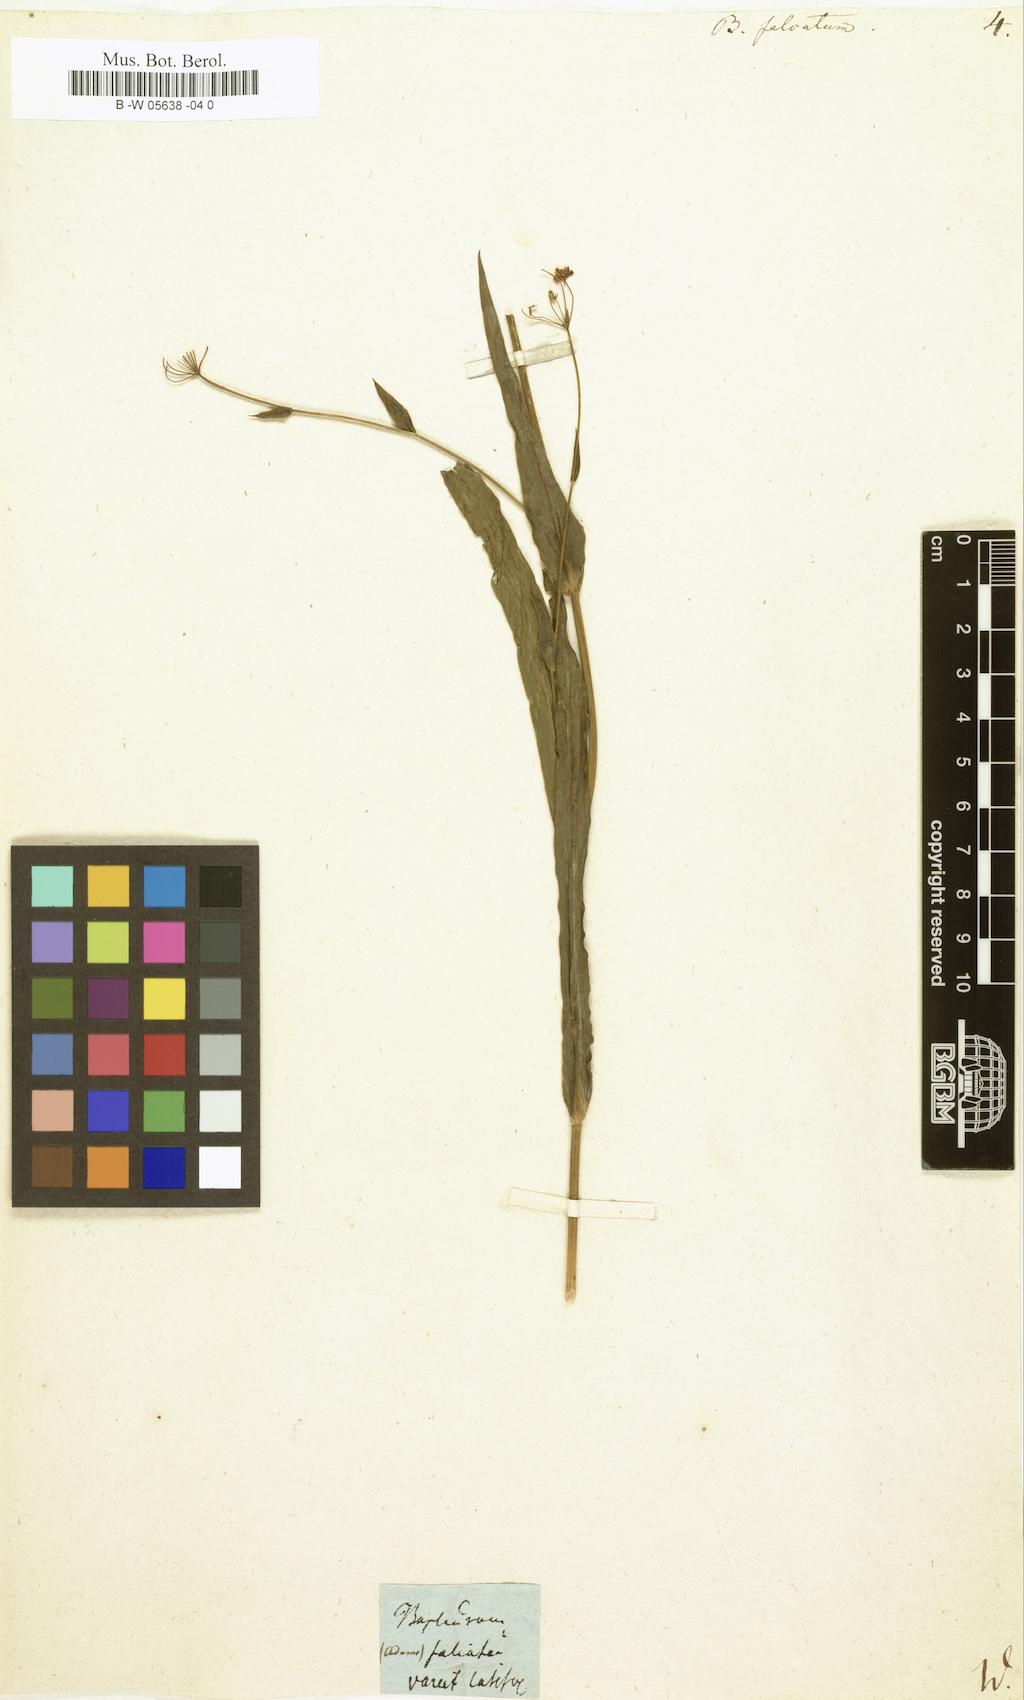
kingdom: Plantae
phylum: Tracheophyta
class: Magnoliopsida
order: Apiales
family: Apiaceae
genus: Bupleurum
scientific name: Bupleurum falcatum
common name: Sickle-leaved hare's-ear
